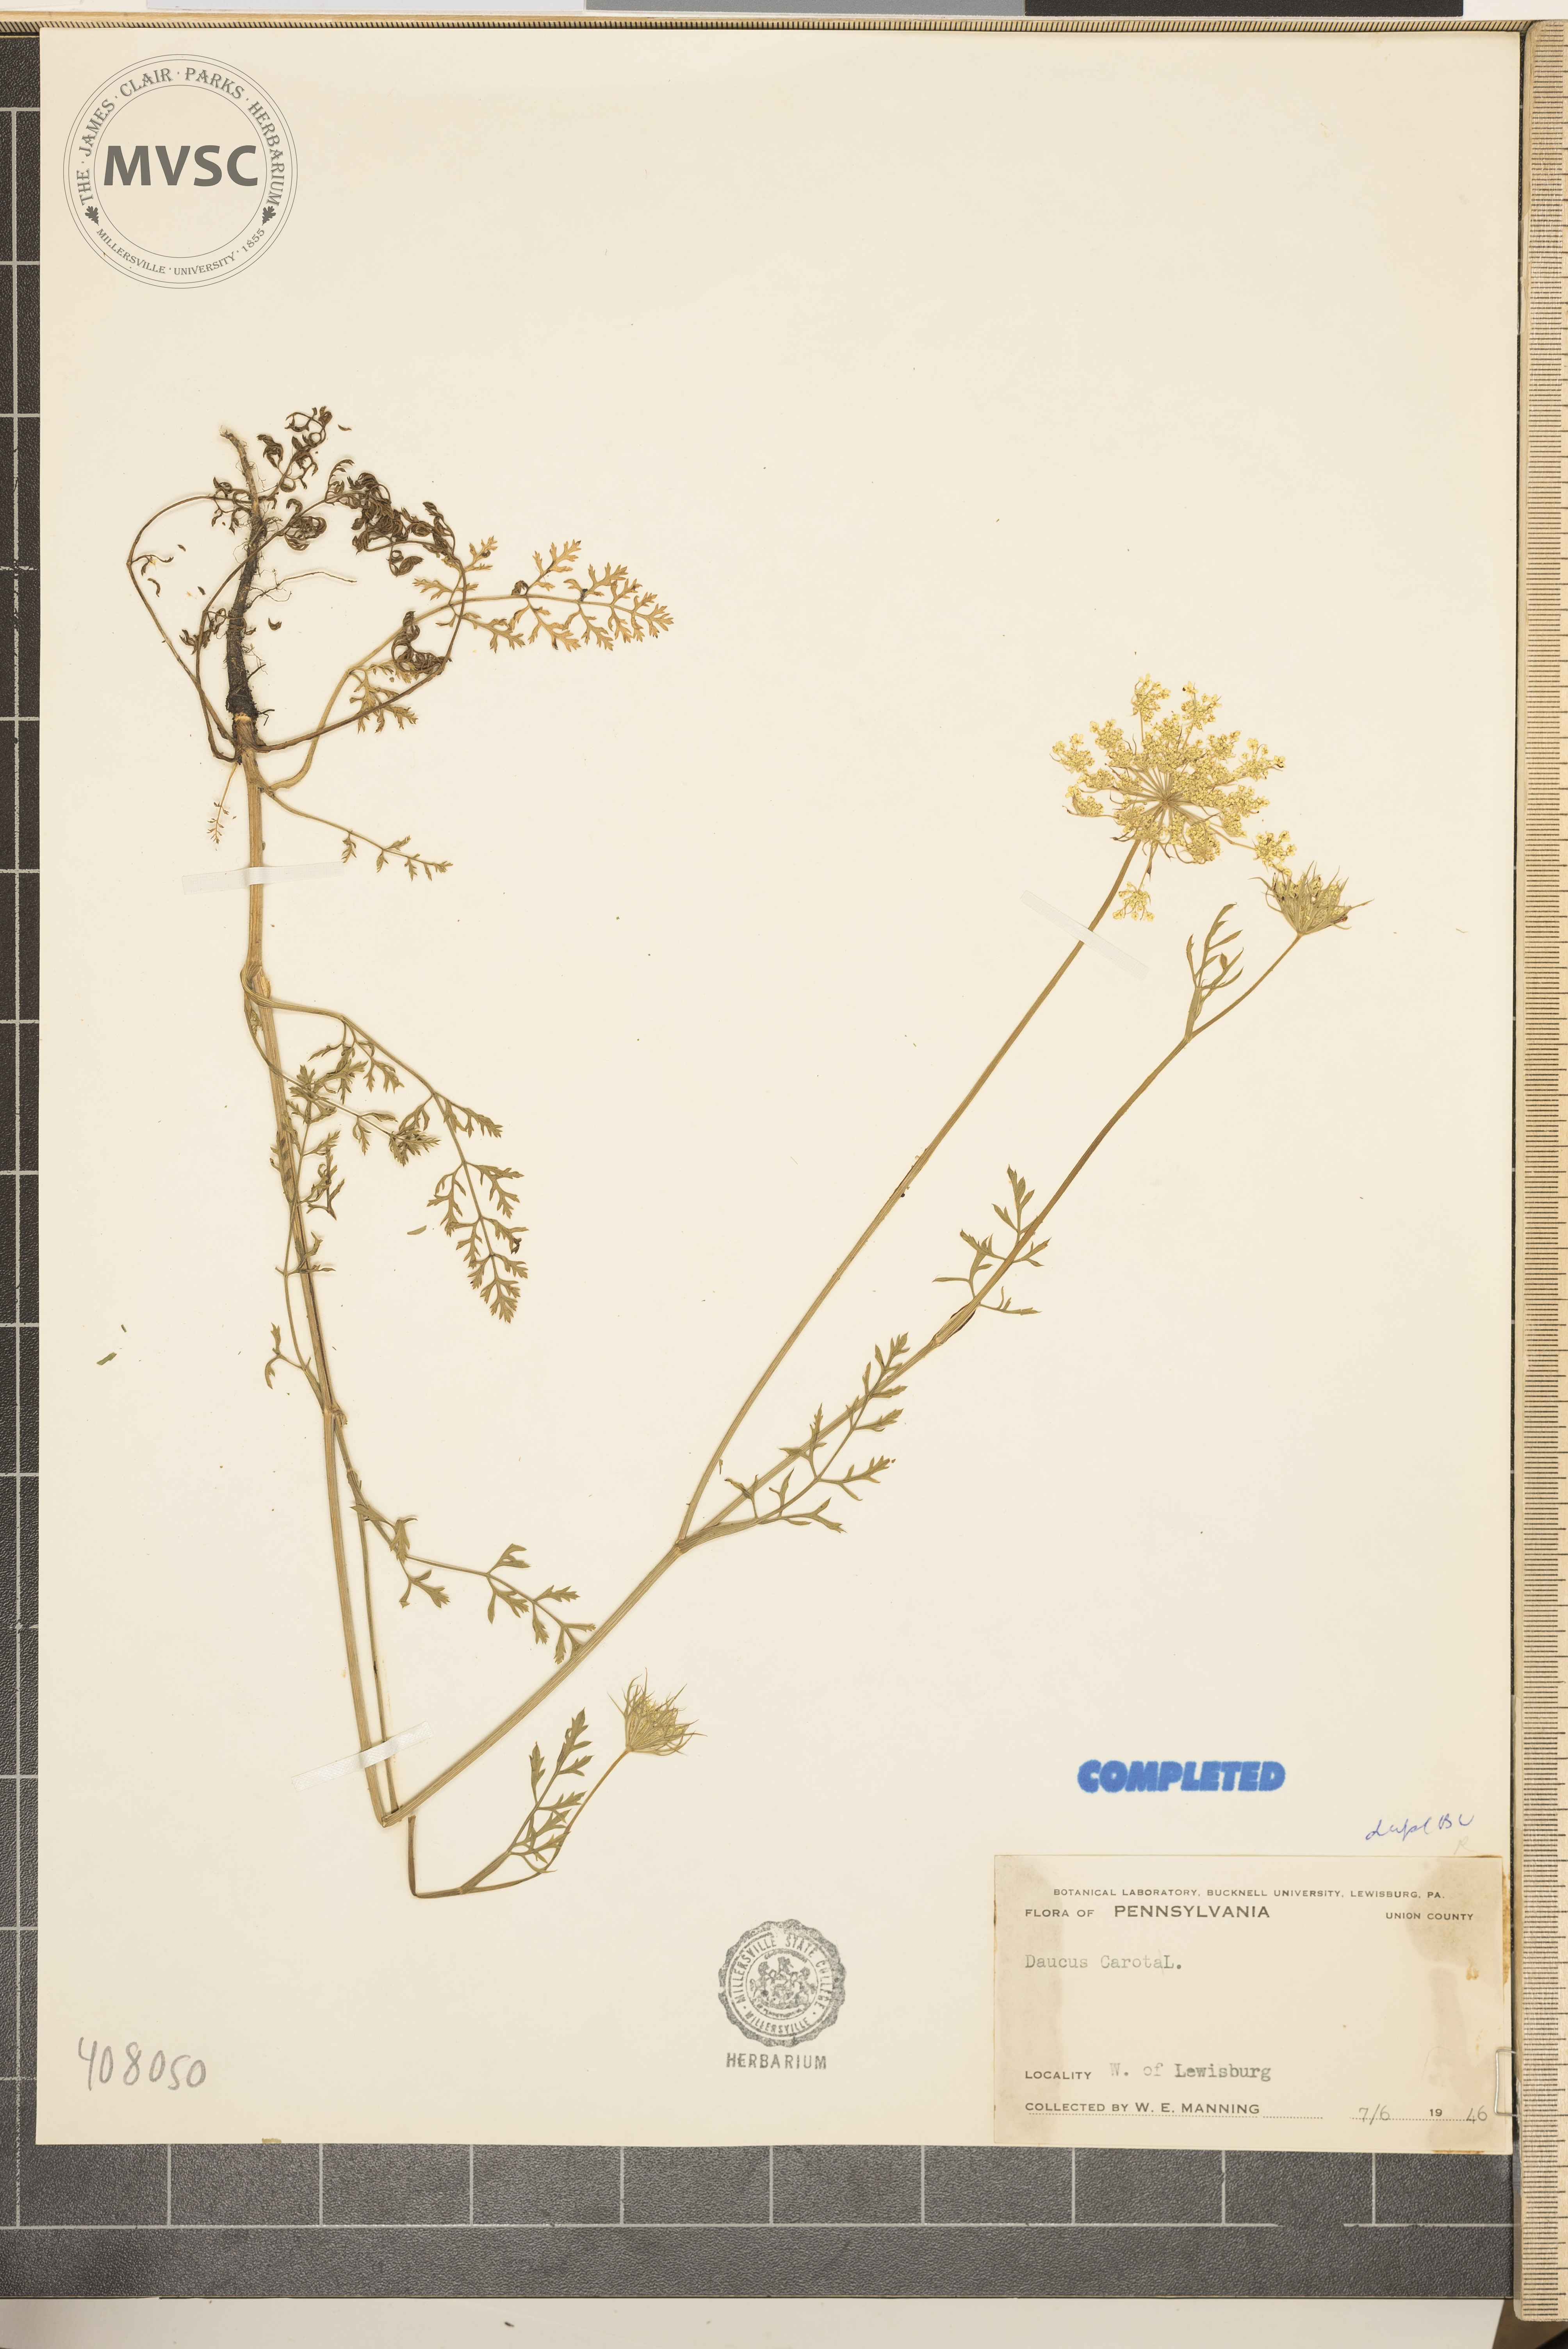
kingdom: Plantae
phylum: Tracheophyta
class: Magnoliopsida
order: Apiales
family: Apiaceae
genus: Daucus
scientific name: Daucus carota
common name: Wild carrot
